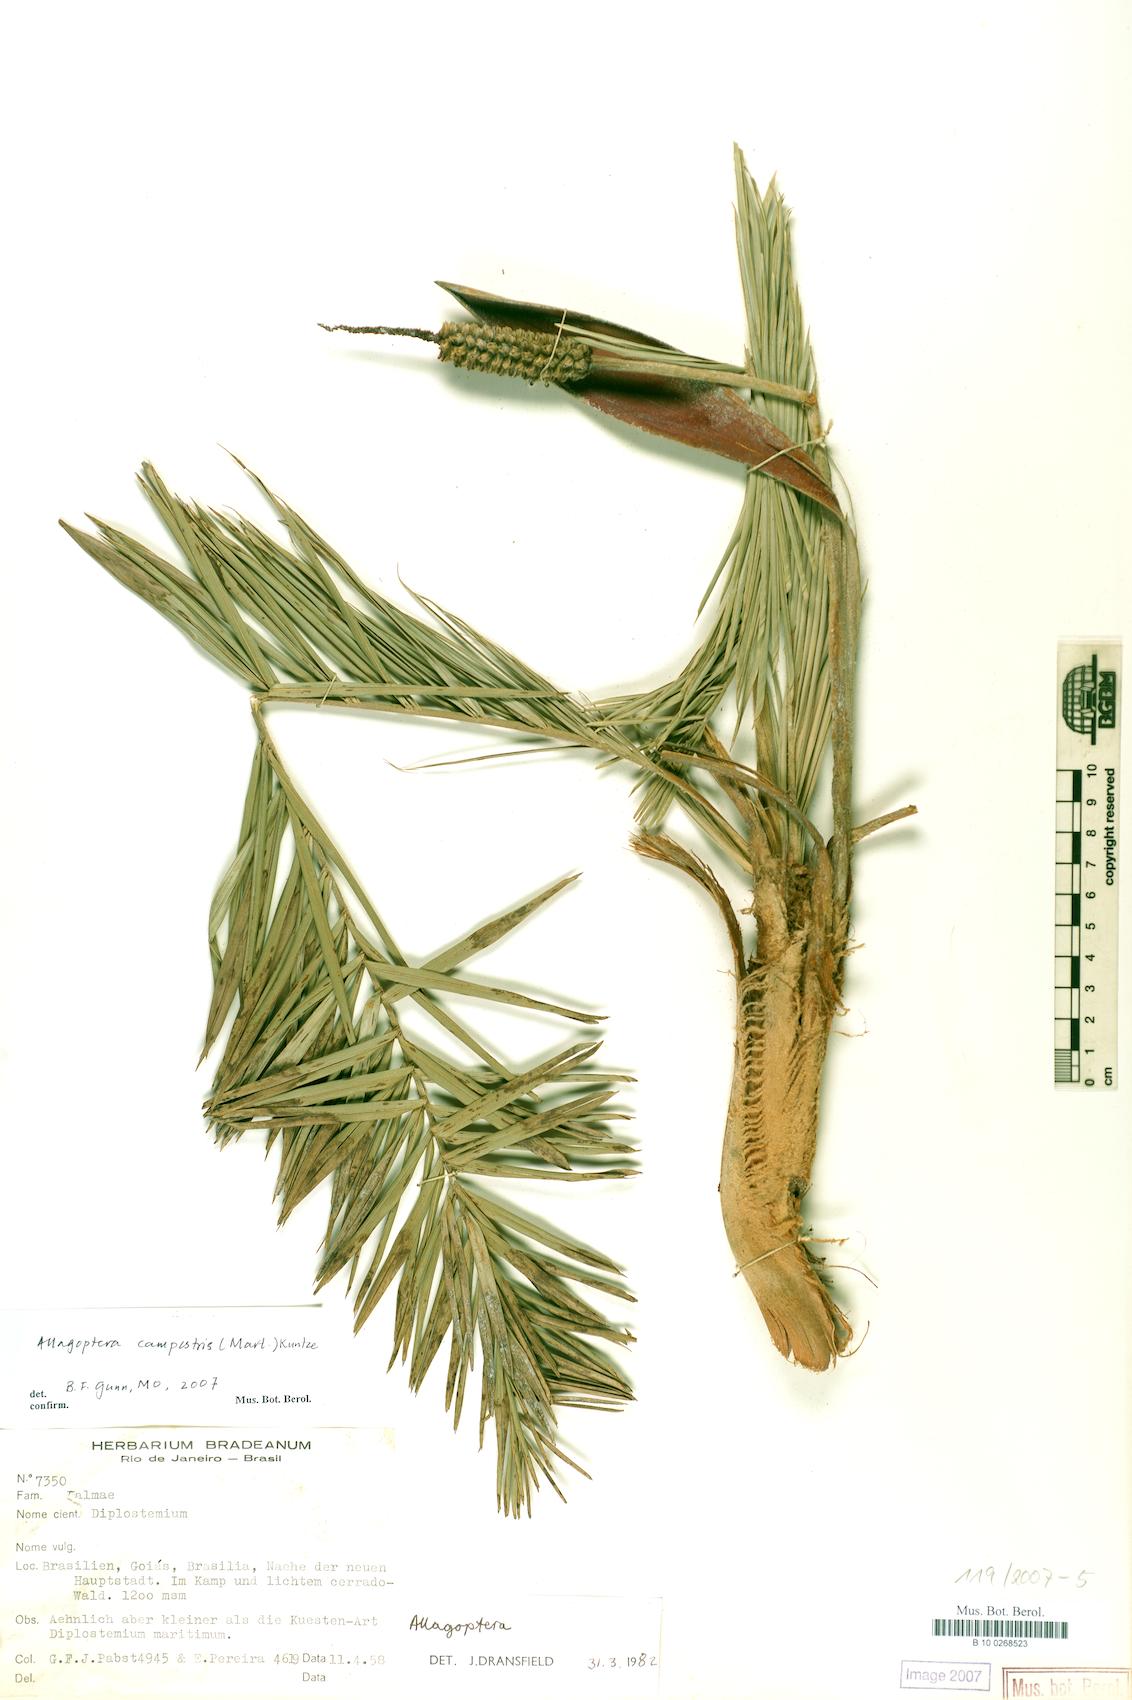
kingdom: Plantae
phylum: Tracheophyta
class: Liliopsida
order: Arecales
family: Arecaceae
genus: Allagoptera
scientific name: Allagoptera campestris
